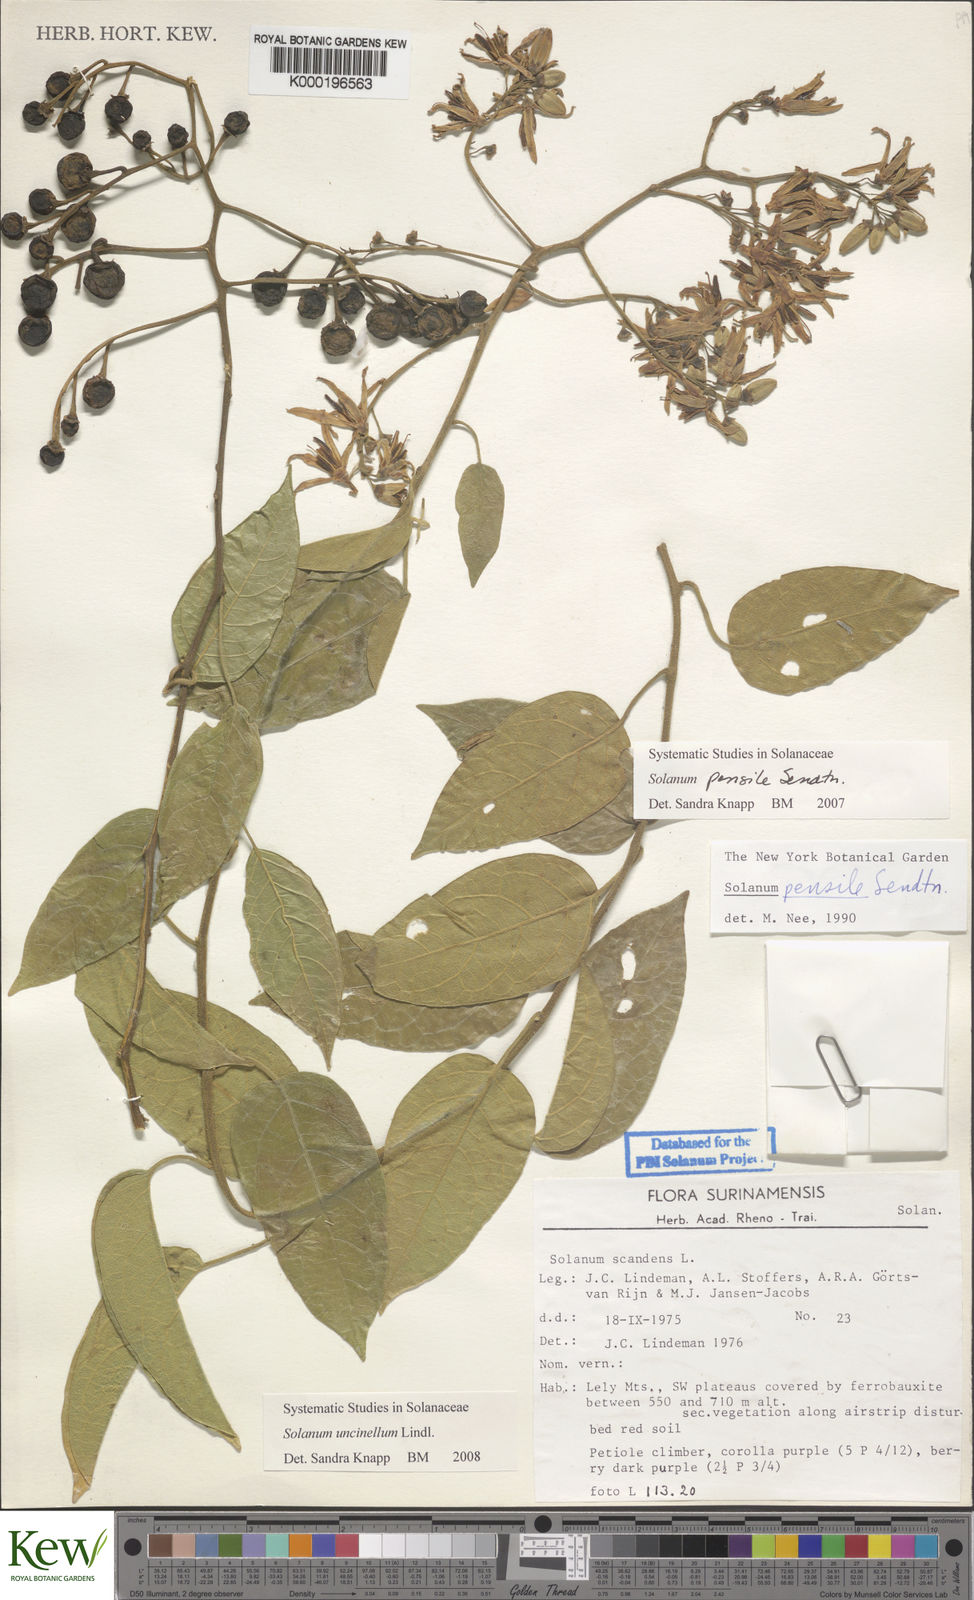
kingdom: Plantae
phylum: Tracheophyta
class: Magnoliopsida
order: Solanales
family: Solanaceae
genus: Solanum
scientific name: Solanum uncinellum
